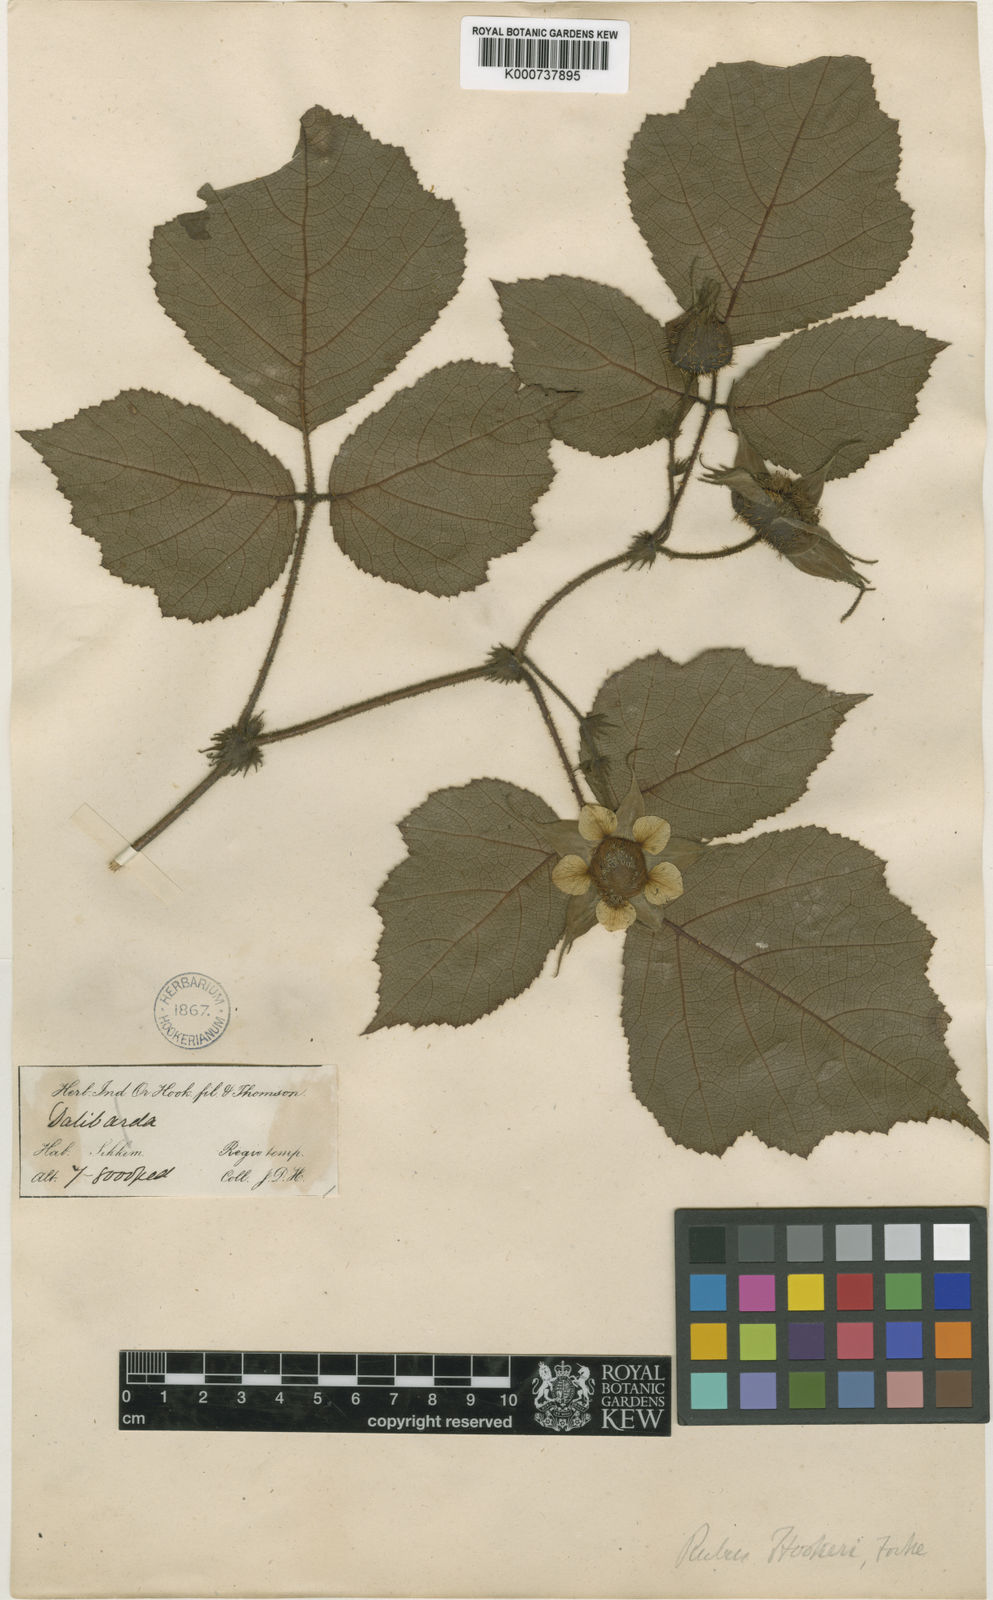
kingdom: Plantae
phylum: Tracheophyta
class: Magnoliopsida
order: Rosales
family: Rosaceae
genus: Rubus
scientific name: Rubus wardii
